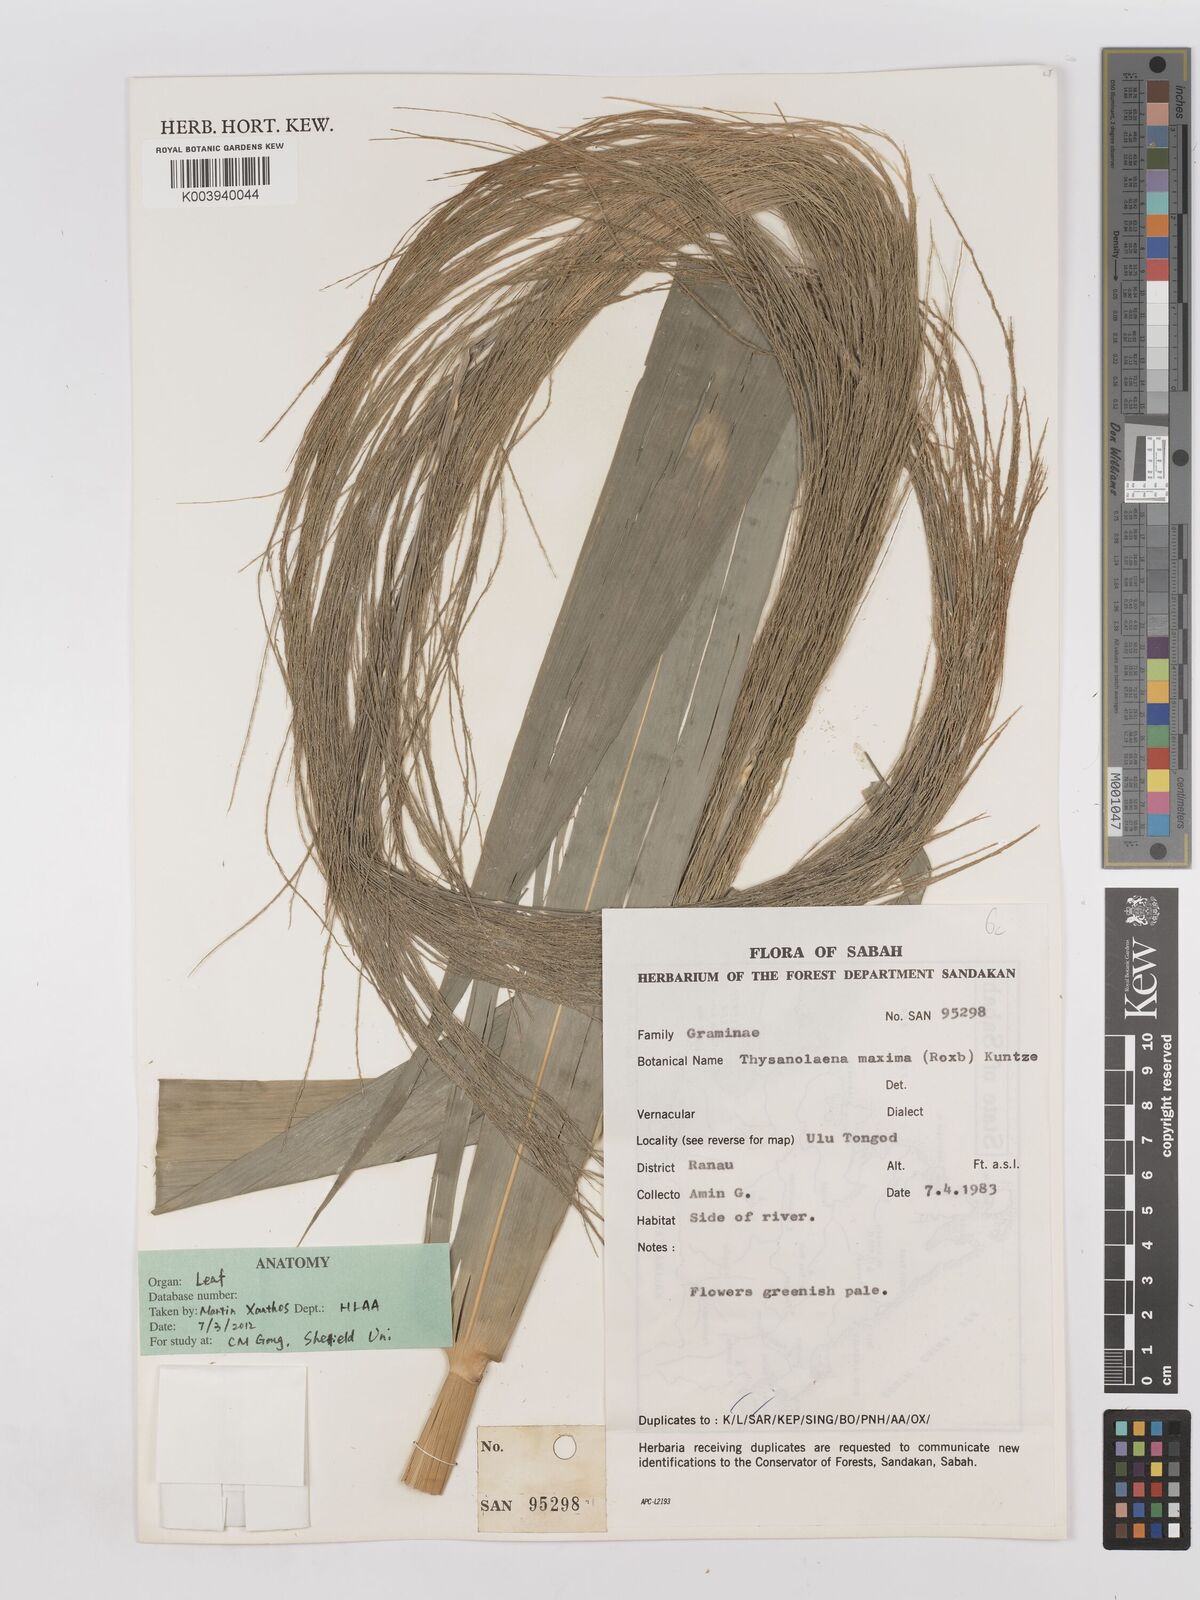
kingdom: Plantae
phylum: Tracheophyta
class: Liliopsida
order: Poales
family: Poaceae
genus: Thysanolaena
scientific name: Thysanolaena latifolia
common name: Tiger grass
